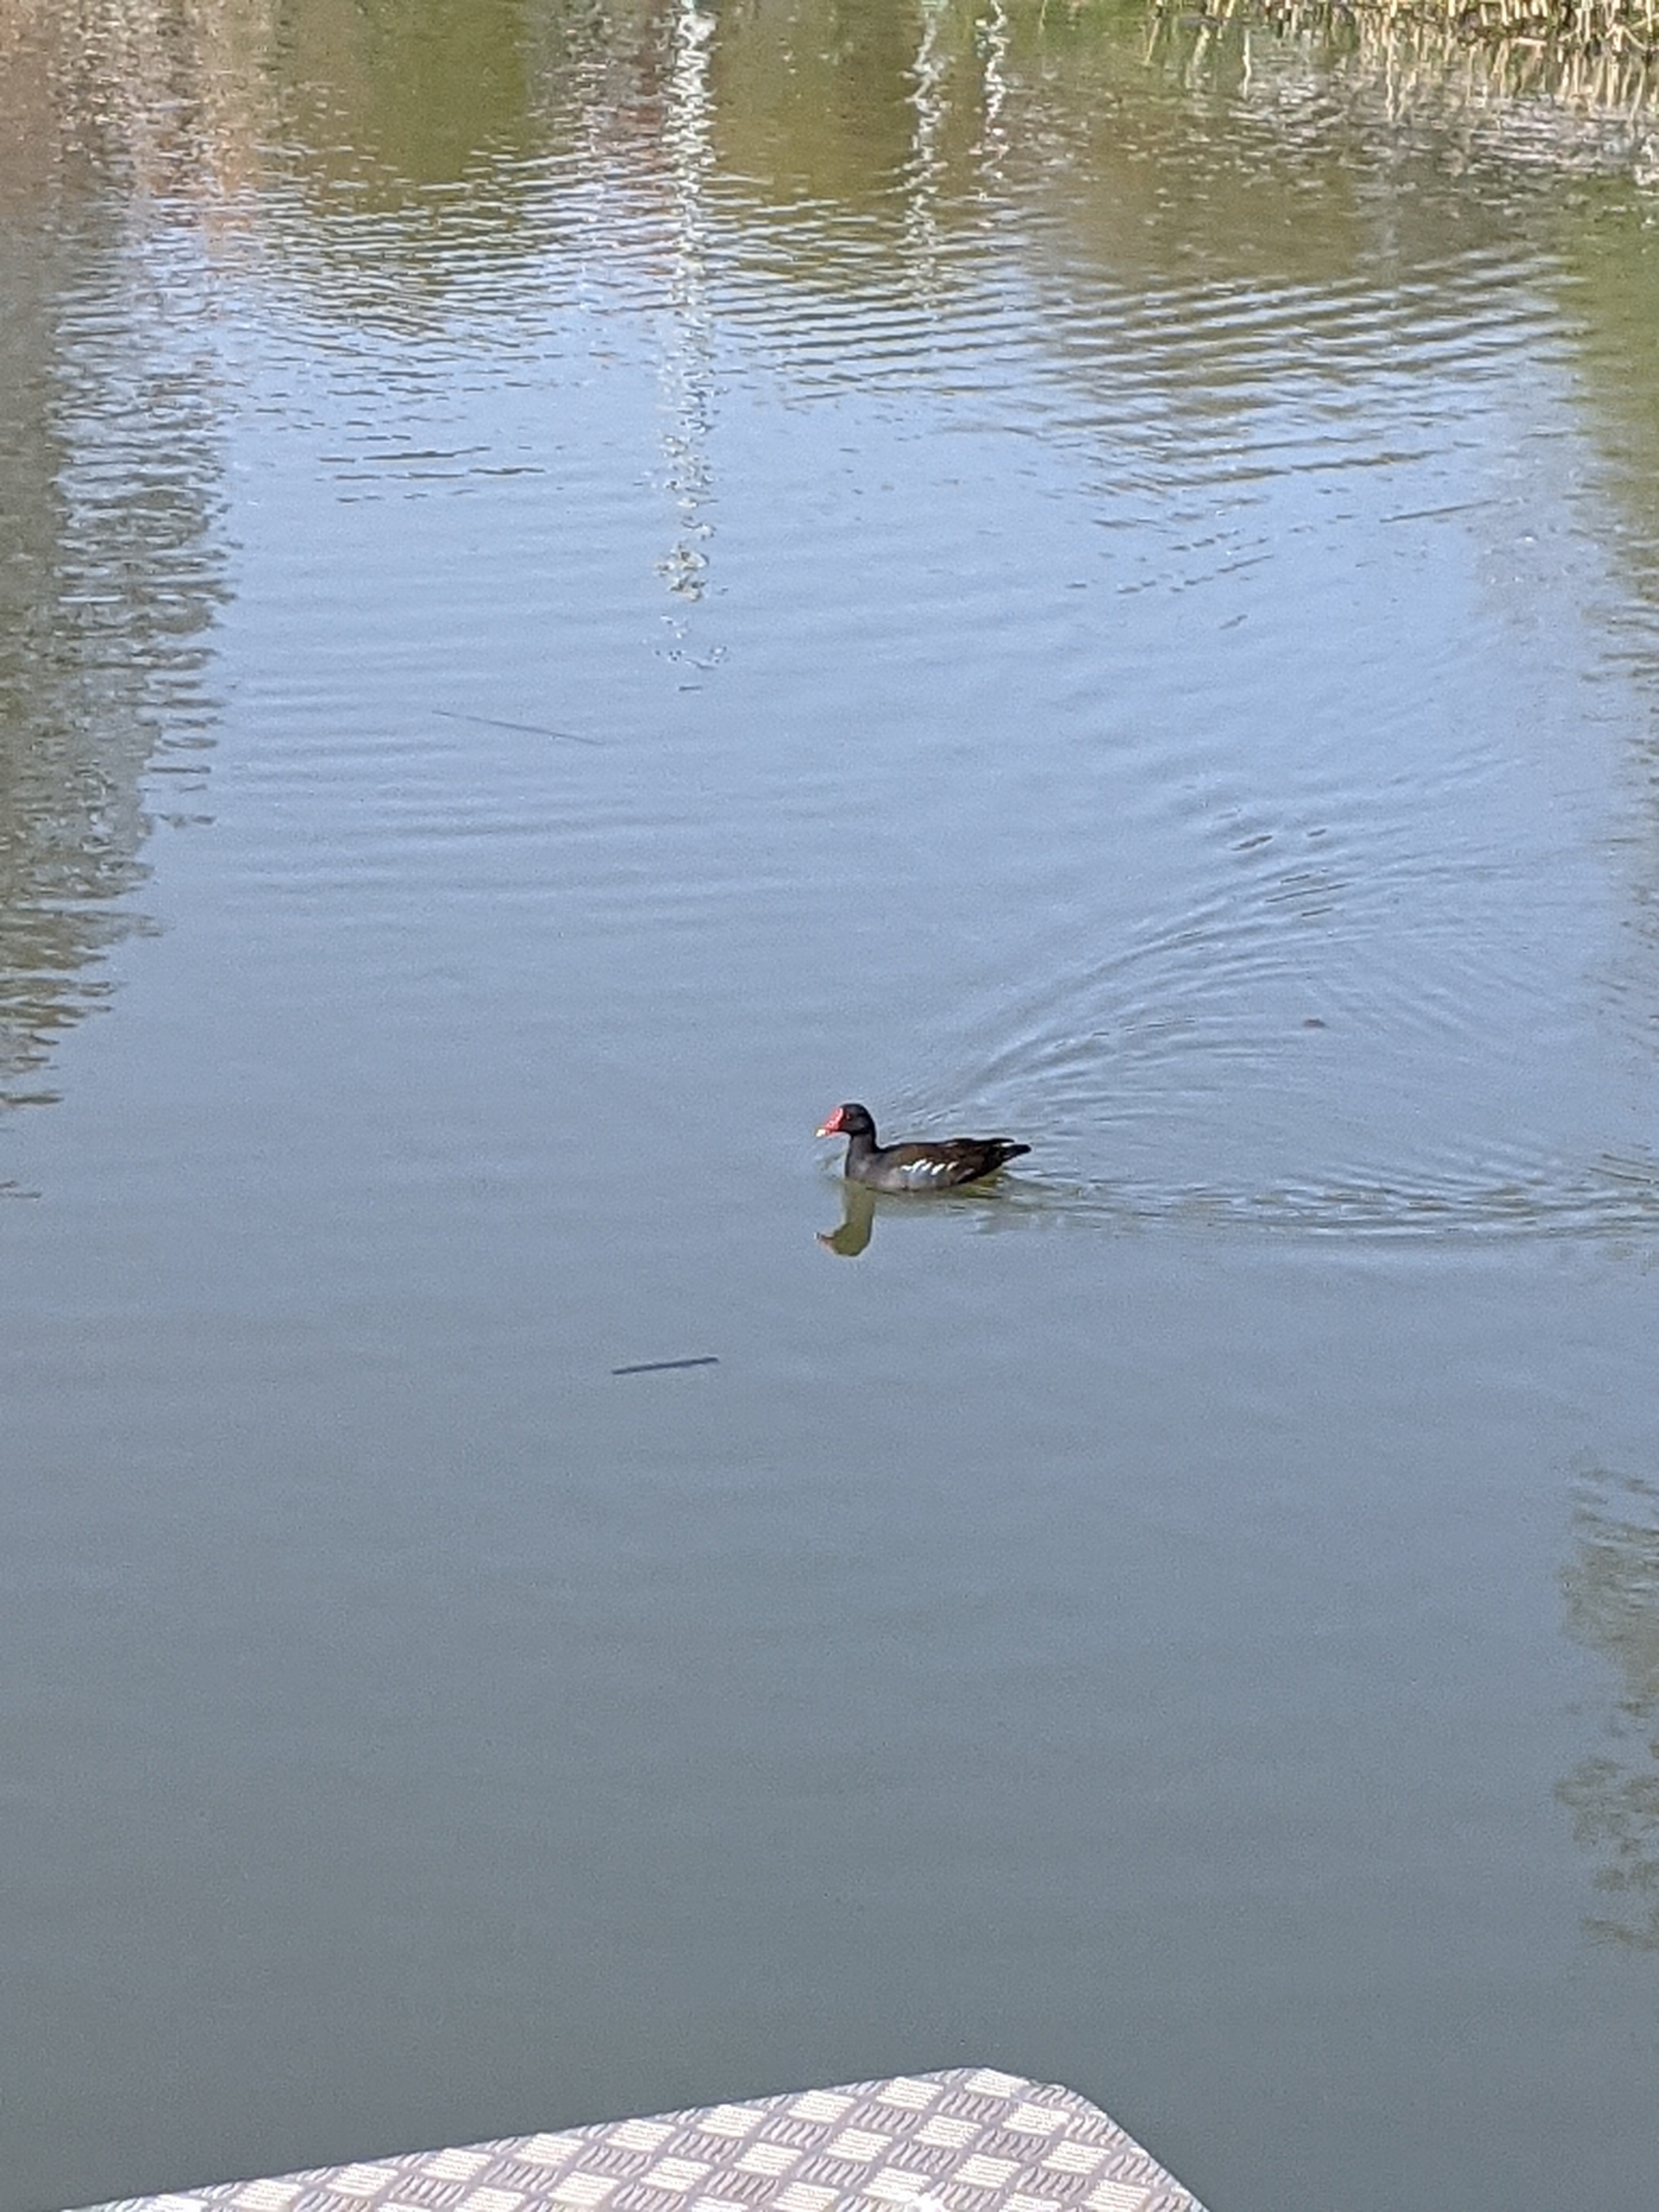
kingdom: Animalia
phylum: Chordata
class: Aves
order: Gruiformes
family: Rallidae
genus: Gallinula
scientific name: Gallinula chloropus
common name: Grønbenet rørhøne
